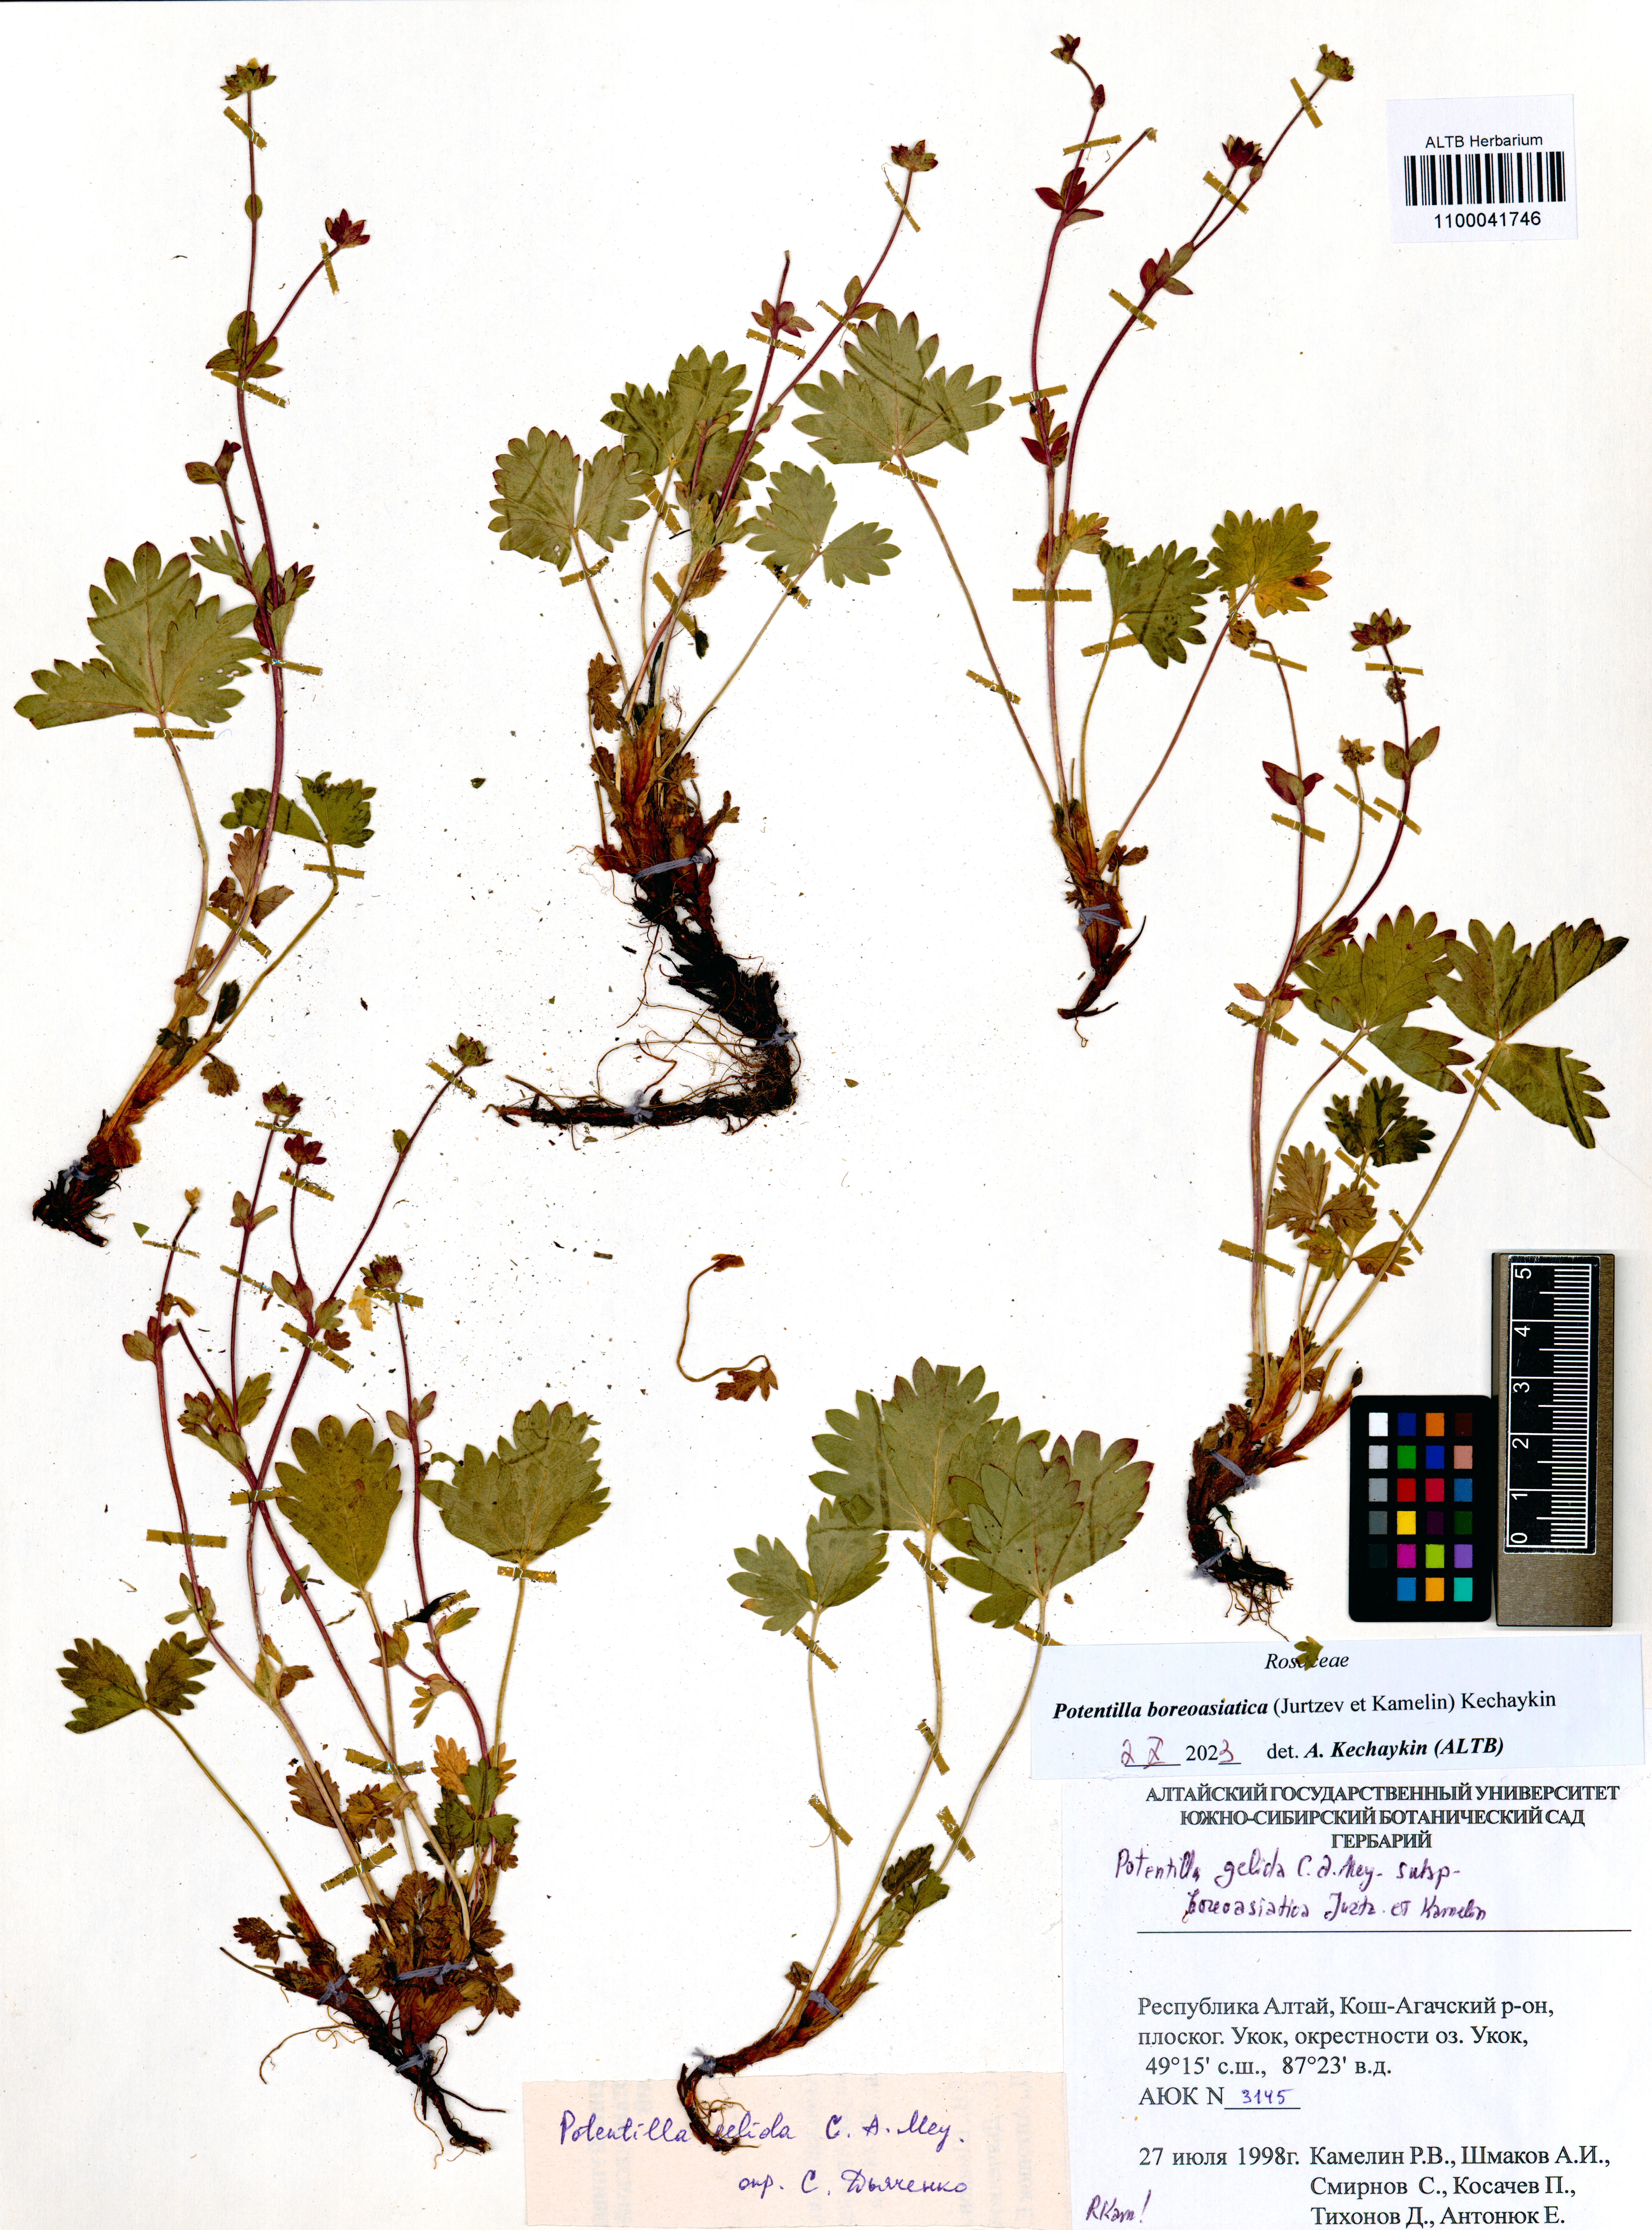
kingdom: Plantae
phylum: Tracheophyta
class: Magnoliopsida
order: Rosales
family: Rosaceae
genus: Potentilla
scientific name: Potentilla
